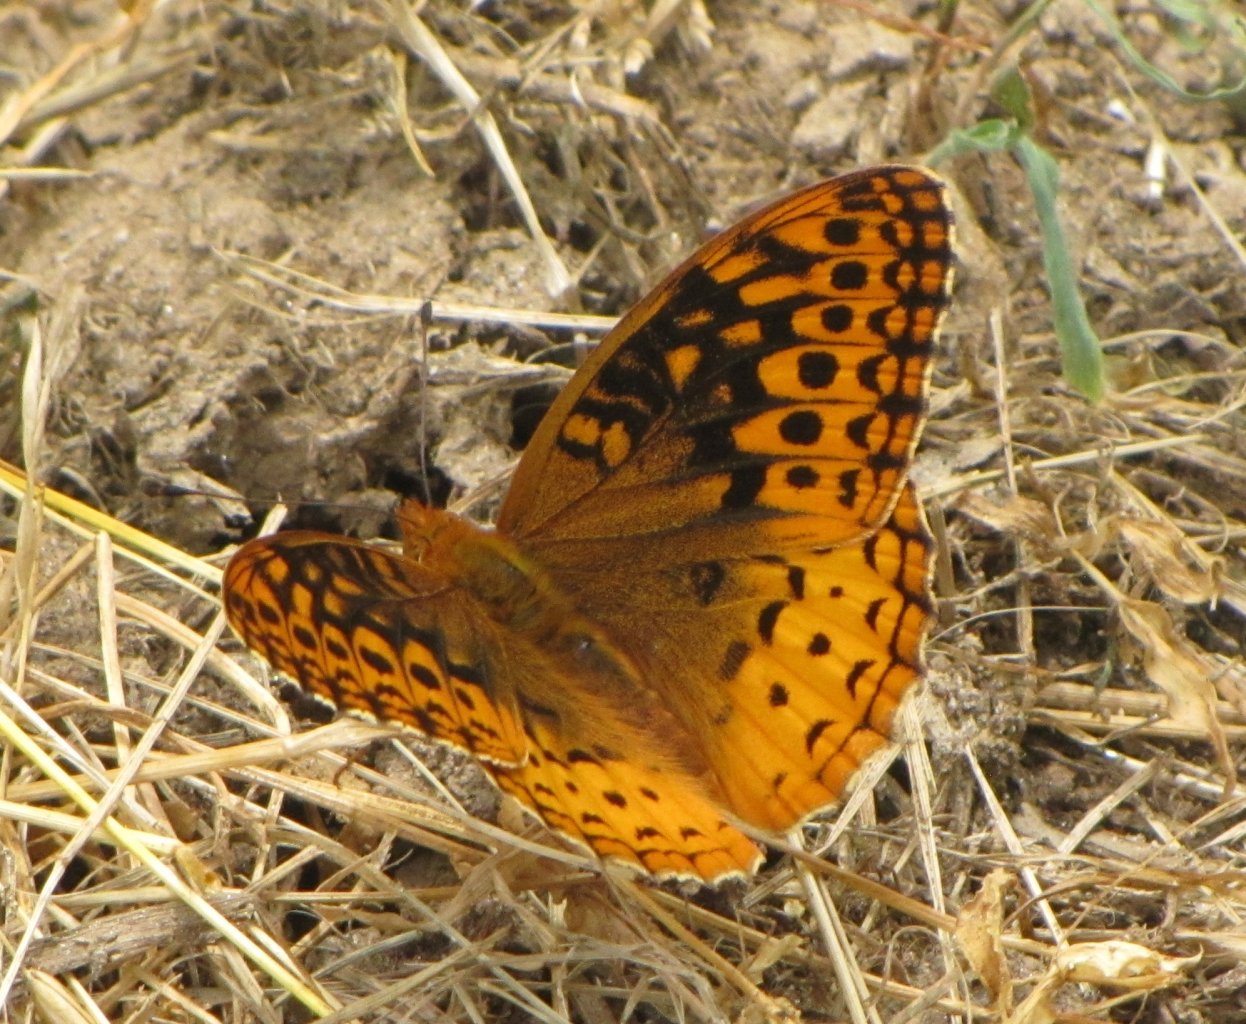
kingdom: Animalia
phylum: Arthropoda
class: Insecta
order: Lepidoptera
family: Nymphalidae
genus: Speyeria
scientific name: Speyeria cybele
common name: Great Spangled Fritillary
